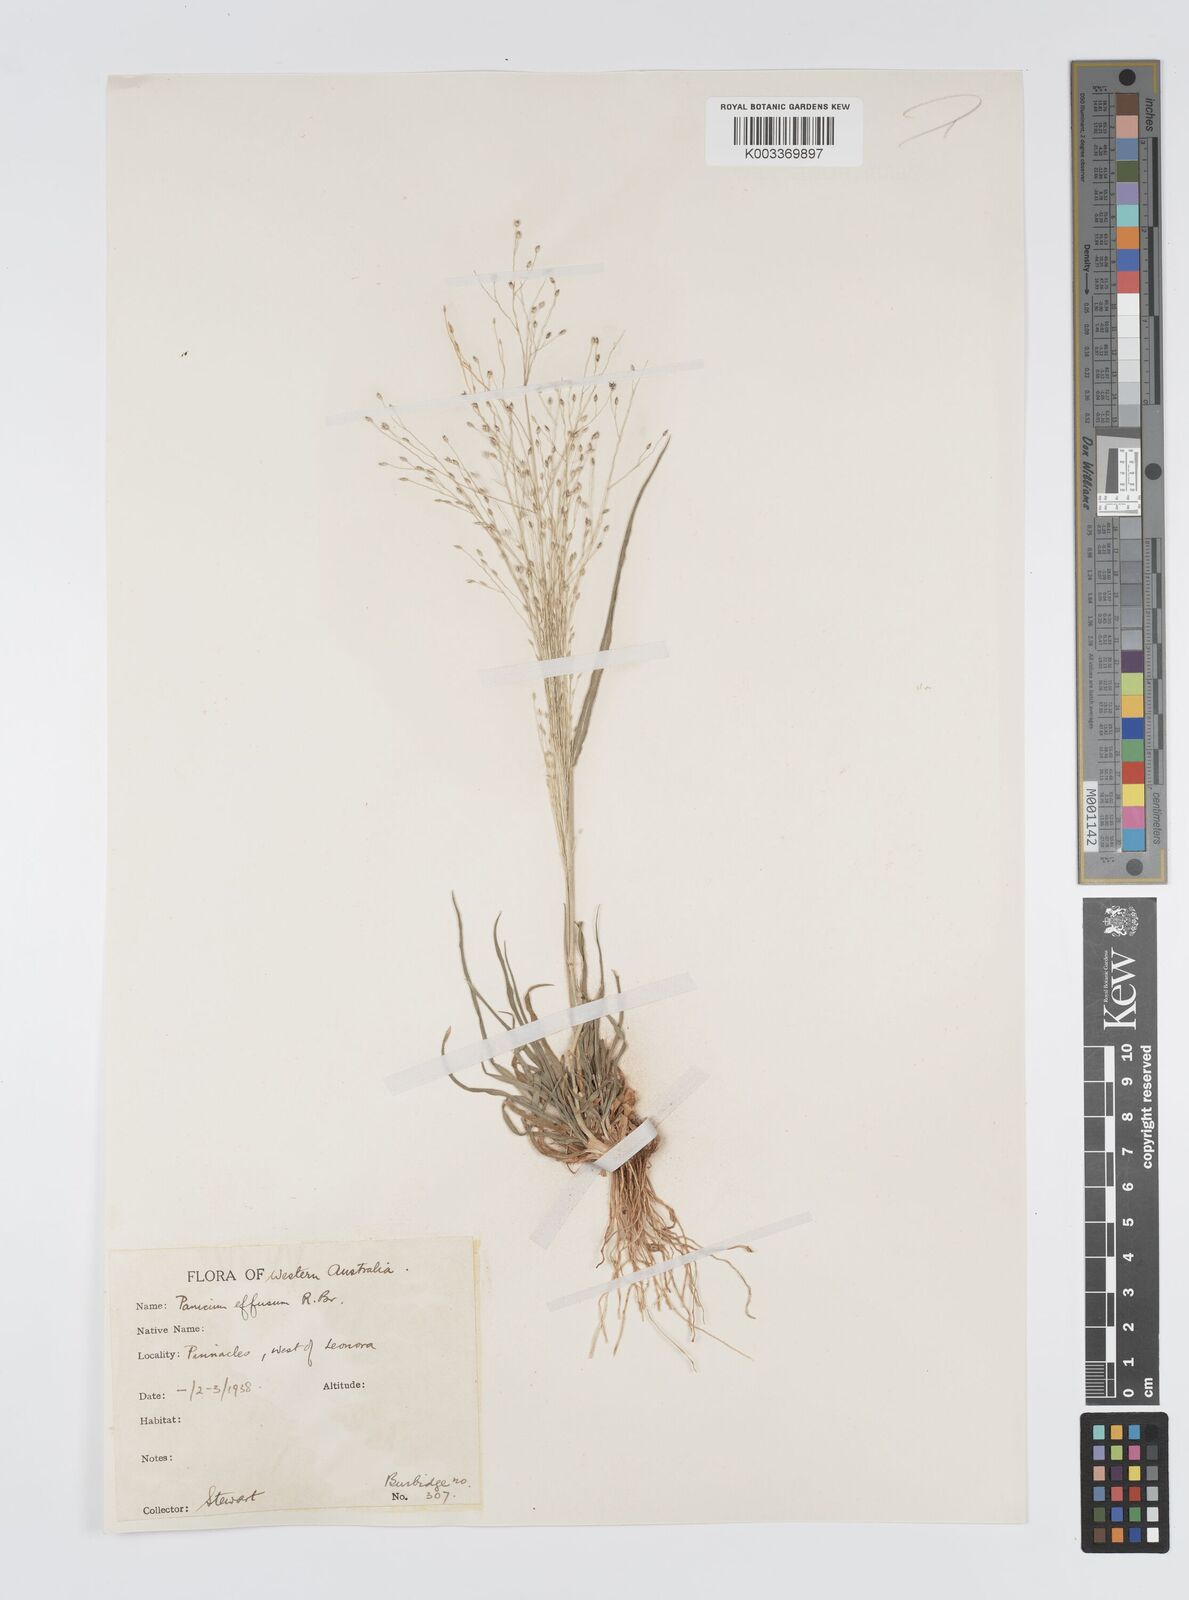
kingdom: Plantae
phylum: Tracheophyta
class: Liliopsida
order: Poales
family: Poaceae
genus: Panicum
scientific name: Panicum effusum
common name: Hairy panic grass
